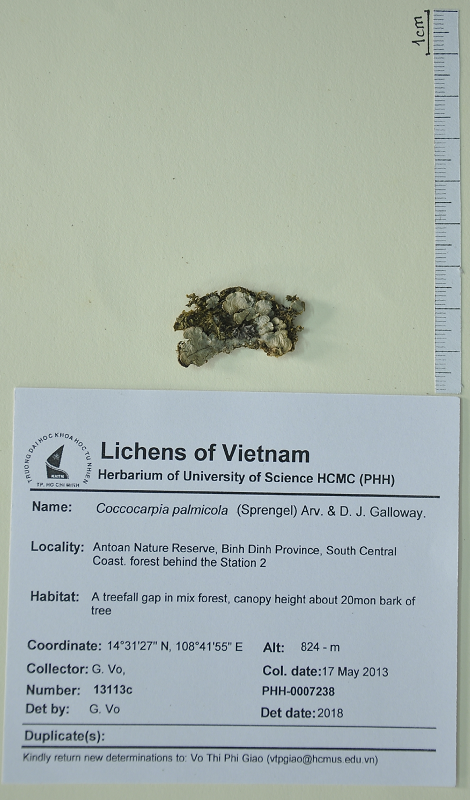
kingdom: Fungi
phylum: Ascomycota
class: Lecanoromycetes
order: Peltigerales
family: Coccocarpiaceae
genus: Coccocarpia
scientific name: Coccocarpia palmicola
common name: Salted shell lichen
